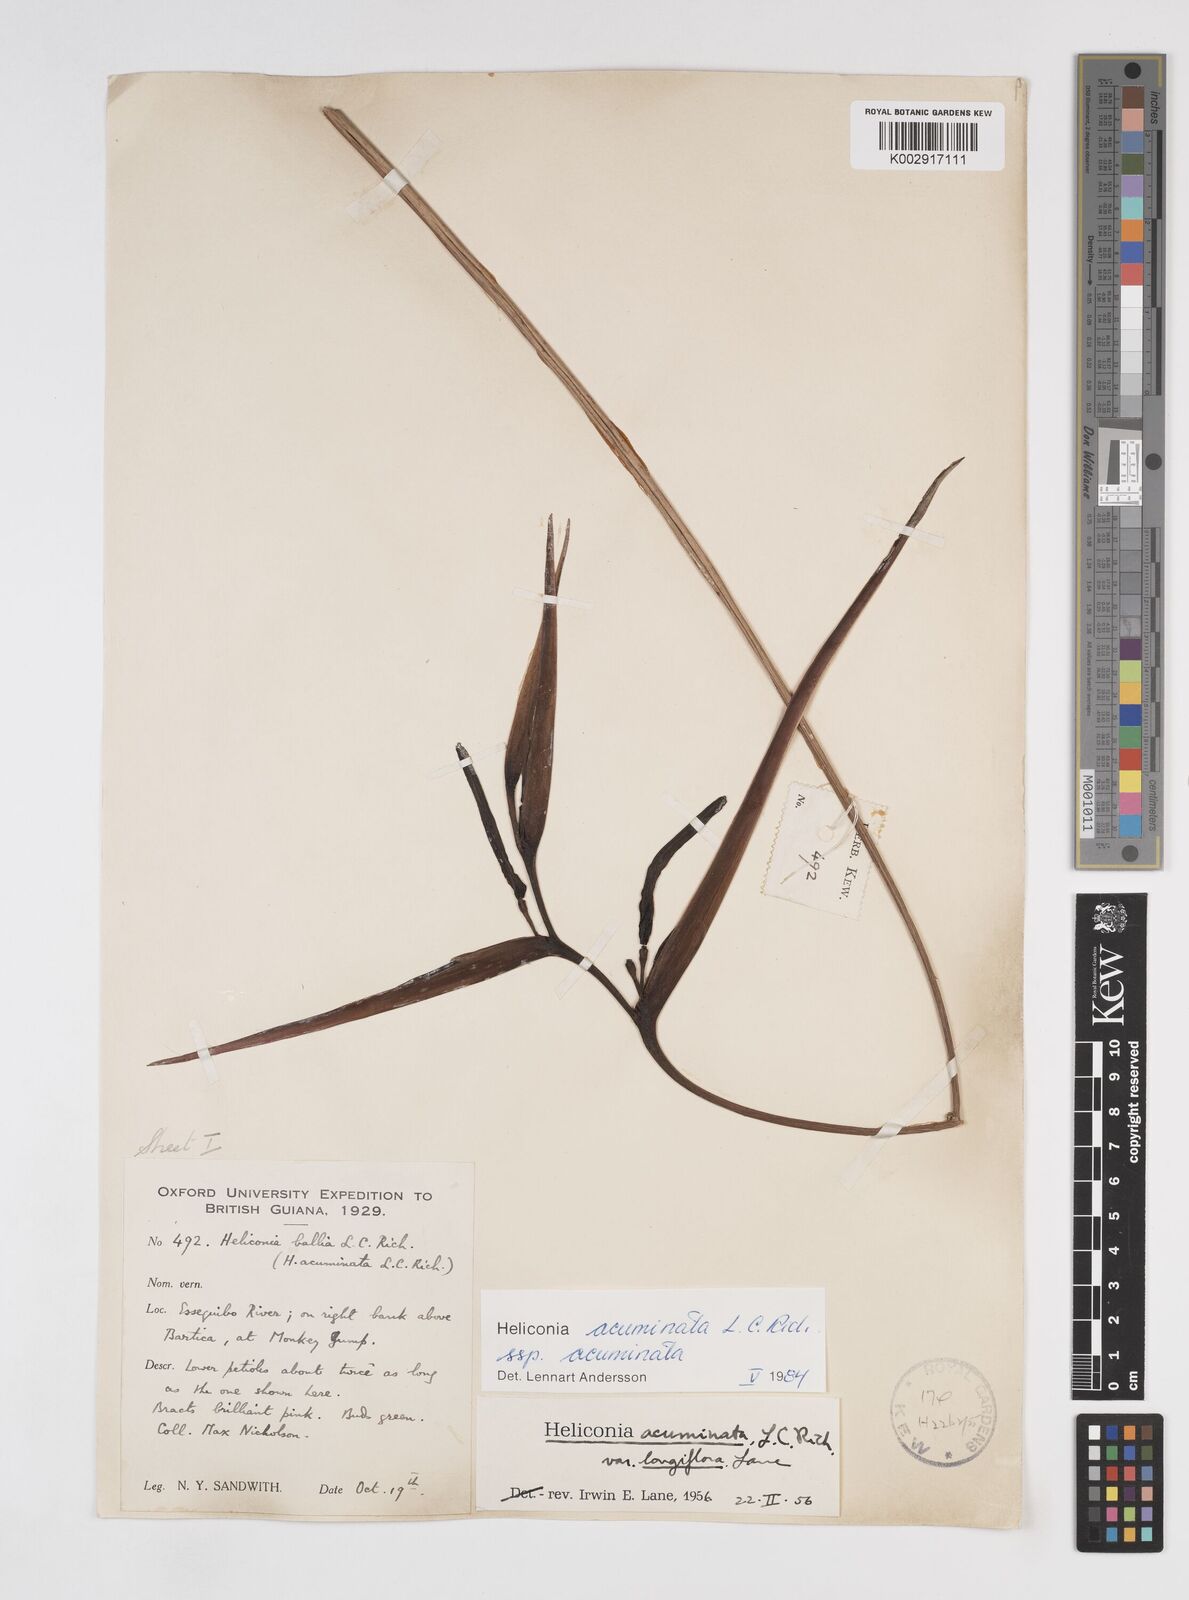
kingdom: Plantae
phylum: Tracheophyta
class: Liliopsida
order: Zingiberales
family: Heliconiaceae
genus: Heliconia
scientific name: Heliconia acuminata
